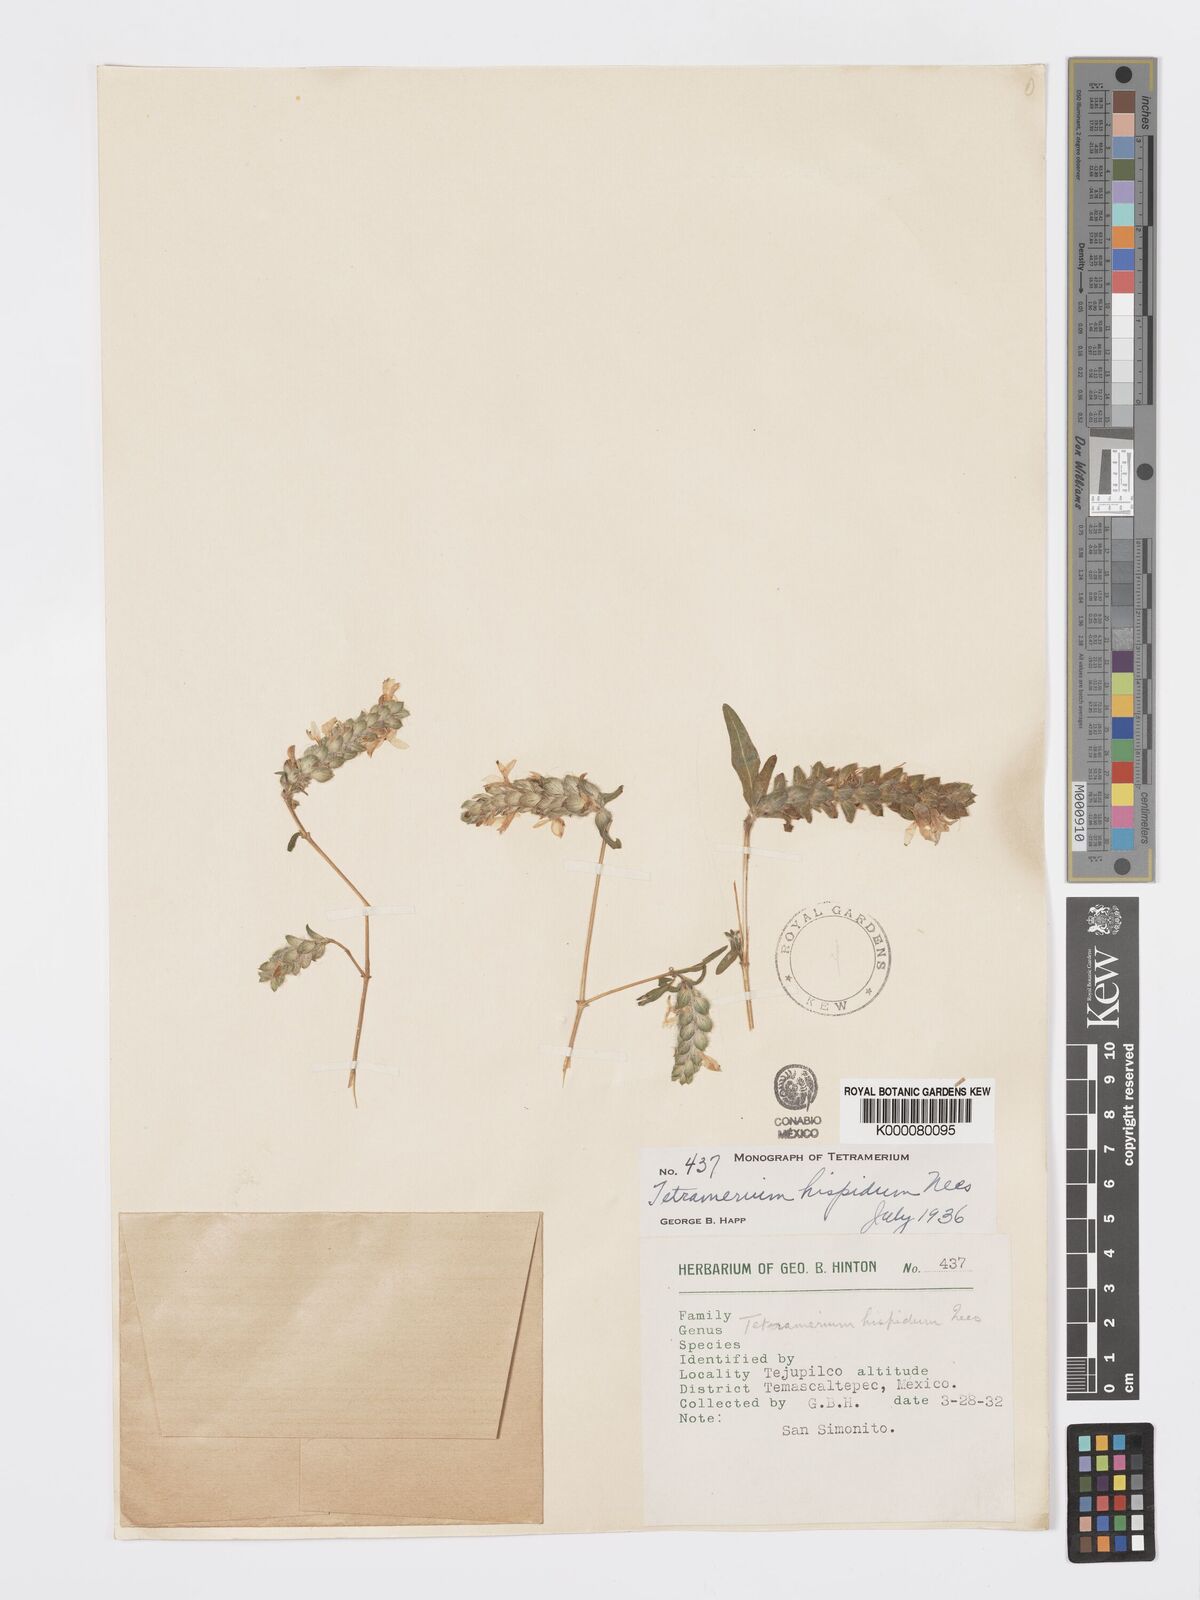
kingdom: Plantae
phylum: Tracheophyta
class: Magnoliopsida
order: Lamiales
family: Acanthaceae
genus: Tetramerium
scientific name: Tetramerium nervosum
